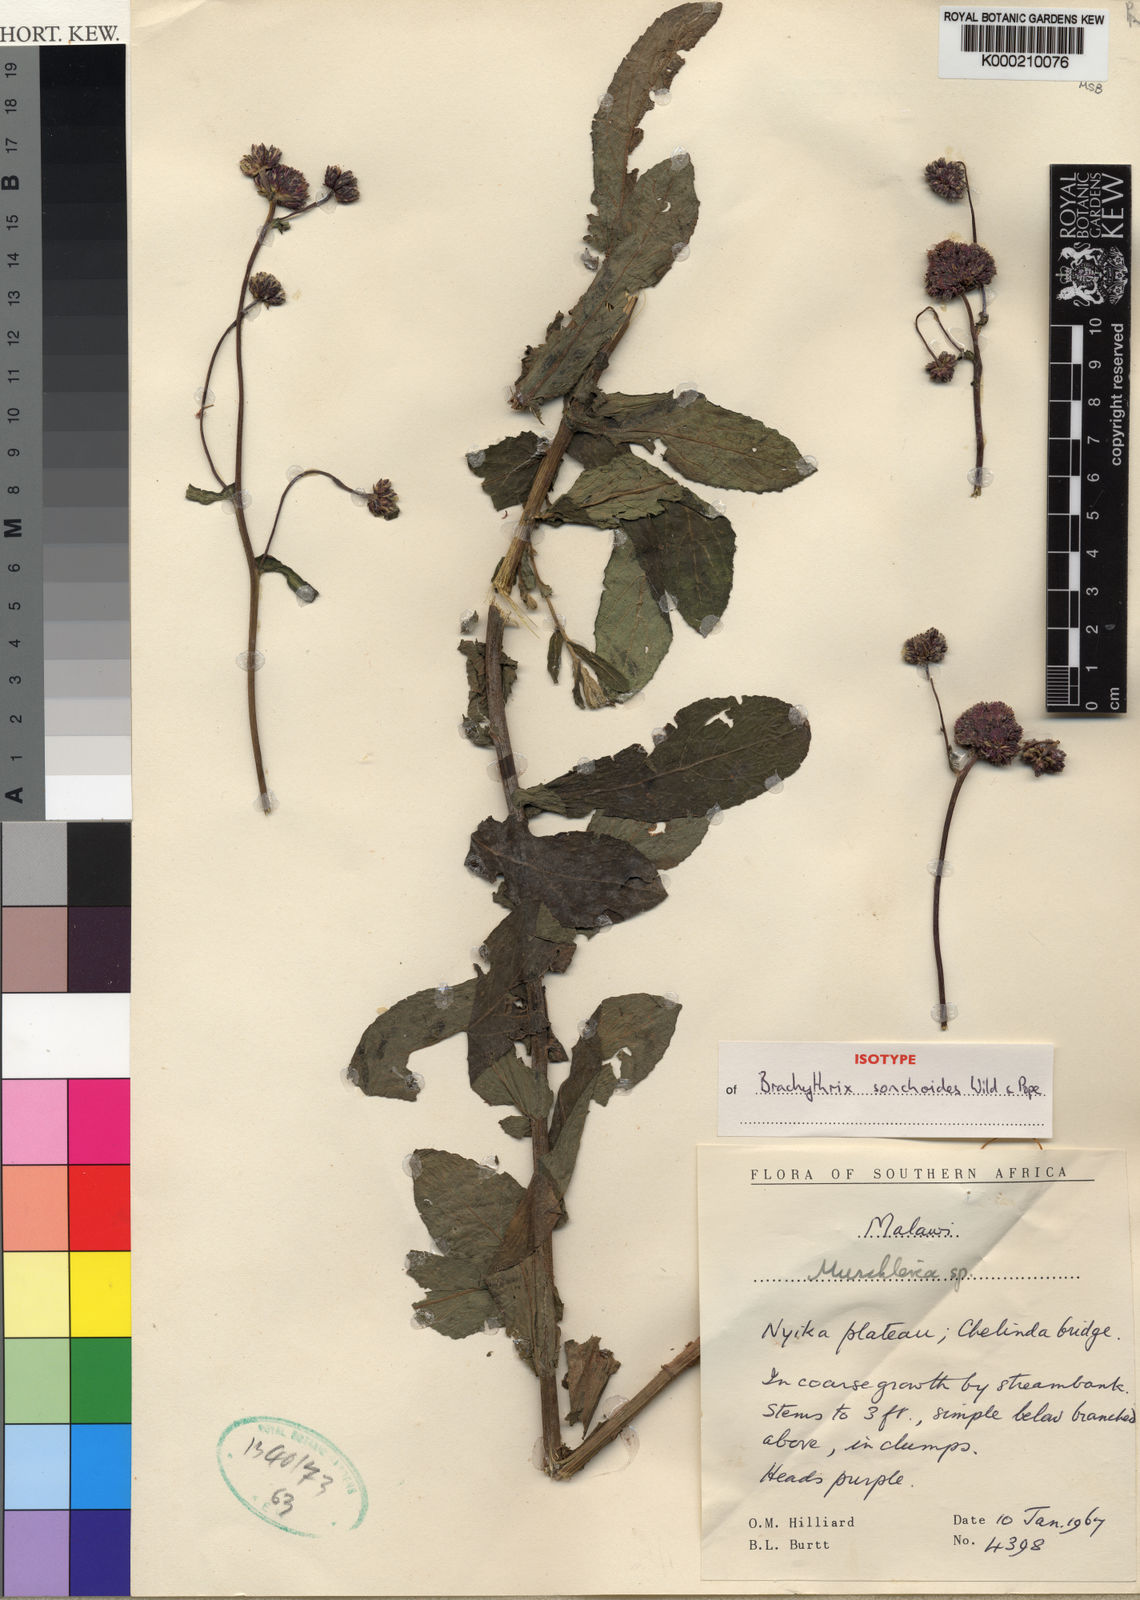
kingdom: Plantae
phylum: Tracheophyta
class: Magnoliopsida
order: Asterales
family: Asteraceae
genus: Brachythrix
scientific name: Brachythrix sonchoides
